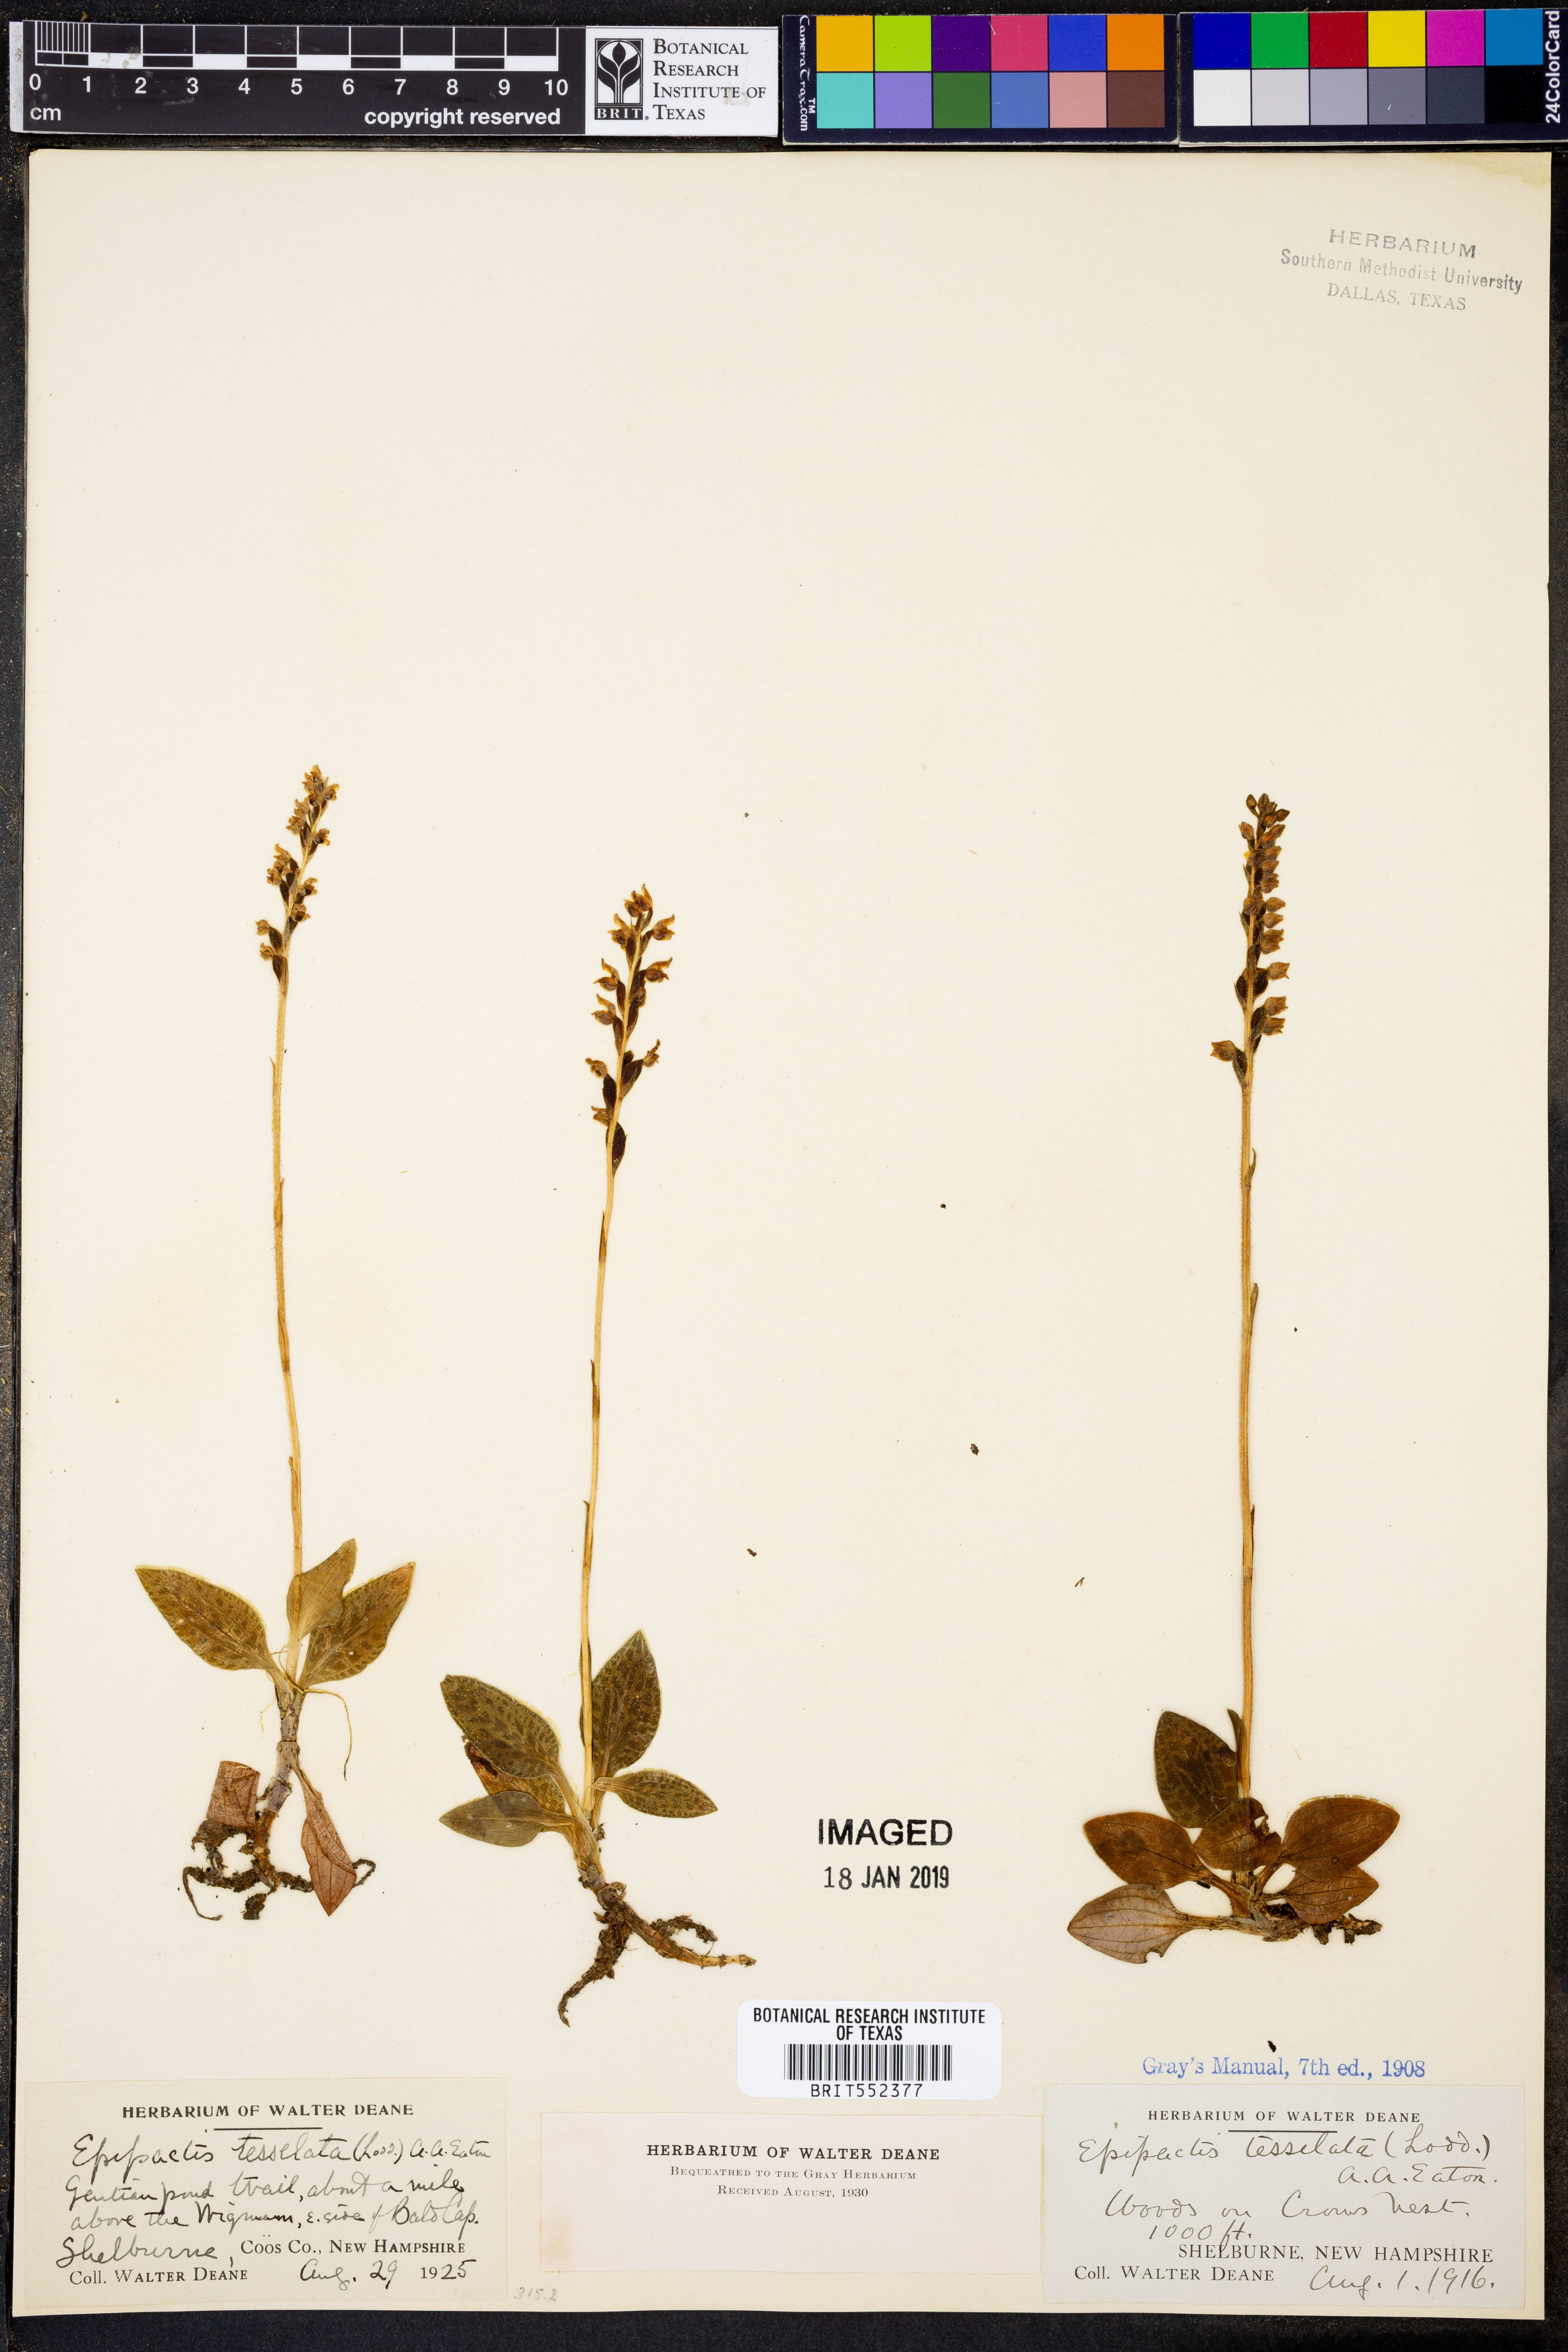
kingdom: Plantae
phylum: Tracheophyta
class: Liliopsida
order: Asparagales
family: Orchidaceae
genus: Goodyera
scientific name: Goodyera tesselata
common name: Checkered rattlesnake-plantain
